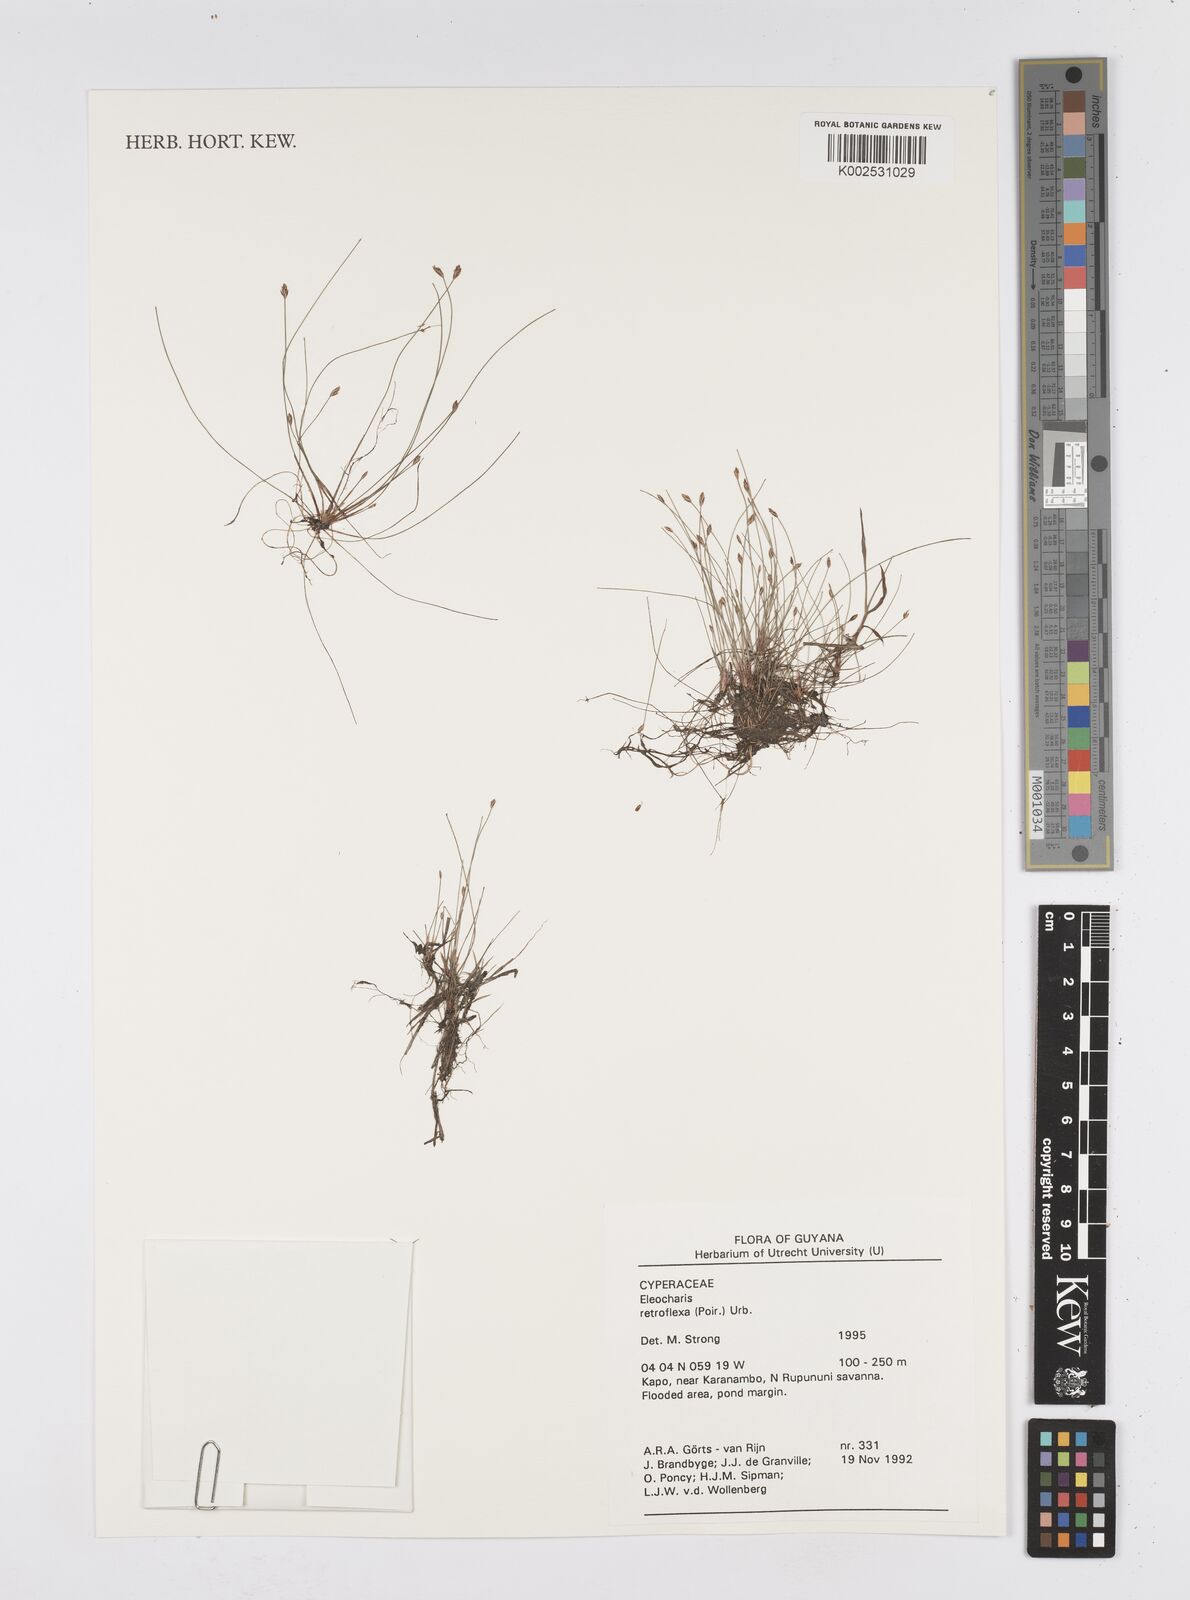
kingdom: Plantae
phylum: Tracheophyta
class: Liliopsida
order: Poales
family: Cyperaceae
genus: Eleocharis
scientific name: Eleocharis retroflexa
